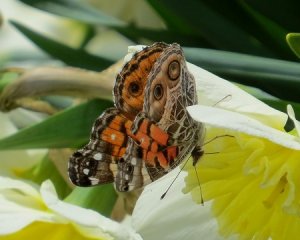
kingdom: Animalia
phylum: Arthropoda
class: Insecta
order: Lepidoptera
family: Nymphalidae
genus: Vanessa
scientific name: Vanessa virginiensis
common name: American Lady
